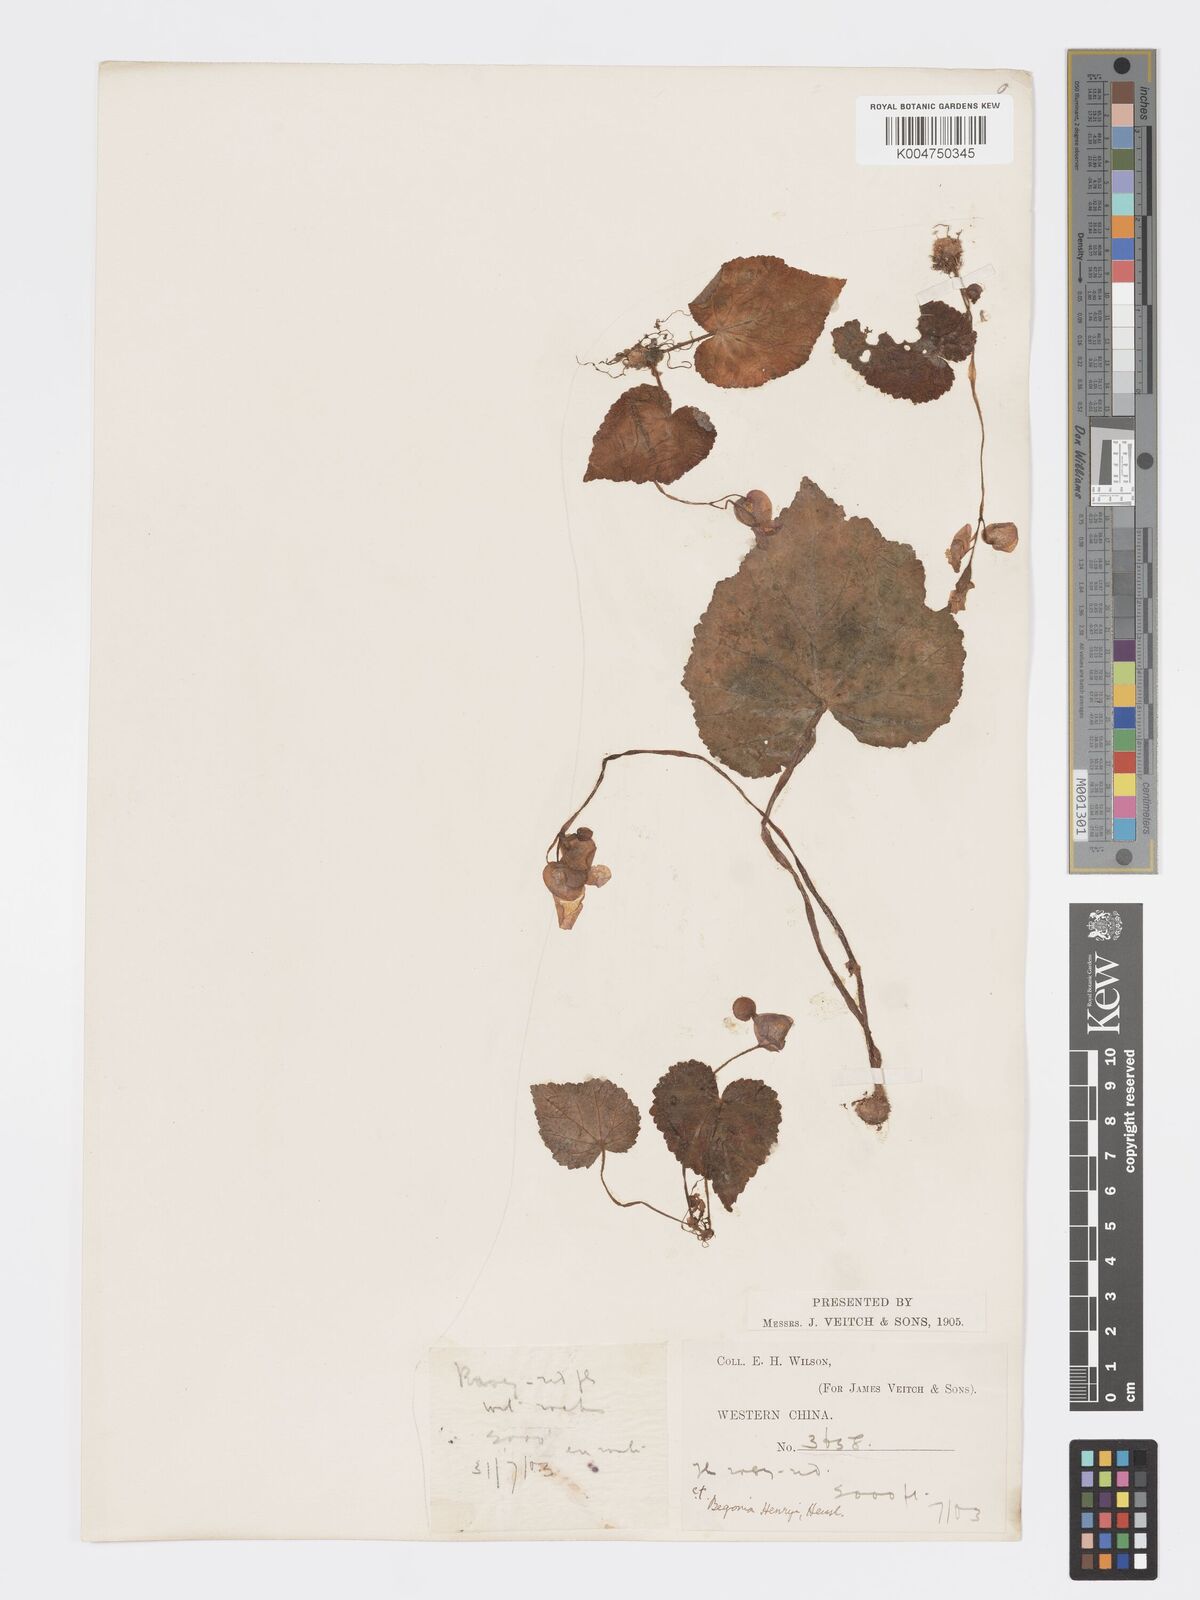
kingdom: Plantae
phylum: Tracheophyta
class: Magnoliopsida
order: Cucurbitales
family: Begoniaceae
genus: Begonia
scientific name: Begonia henryi
